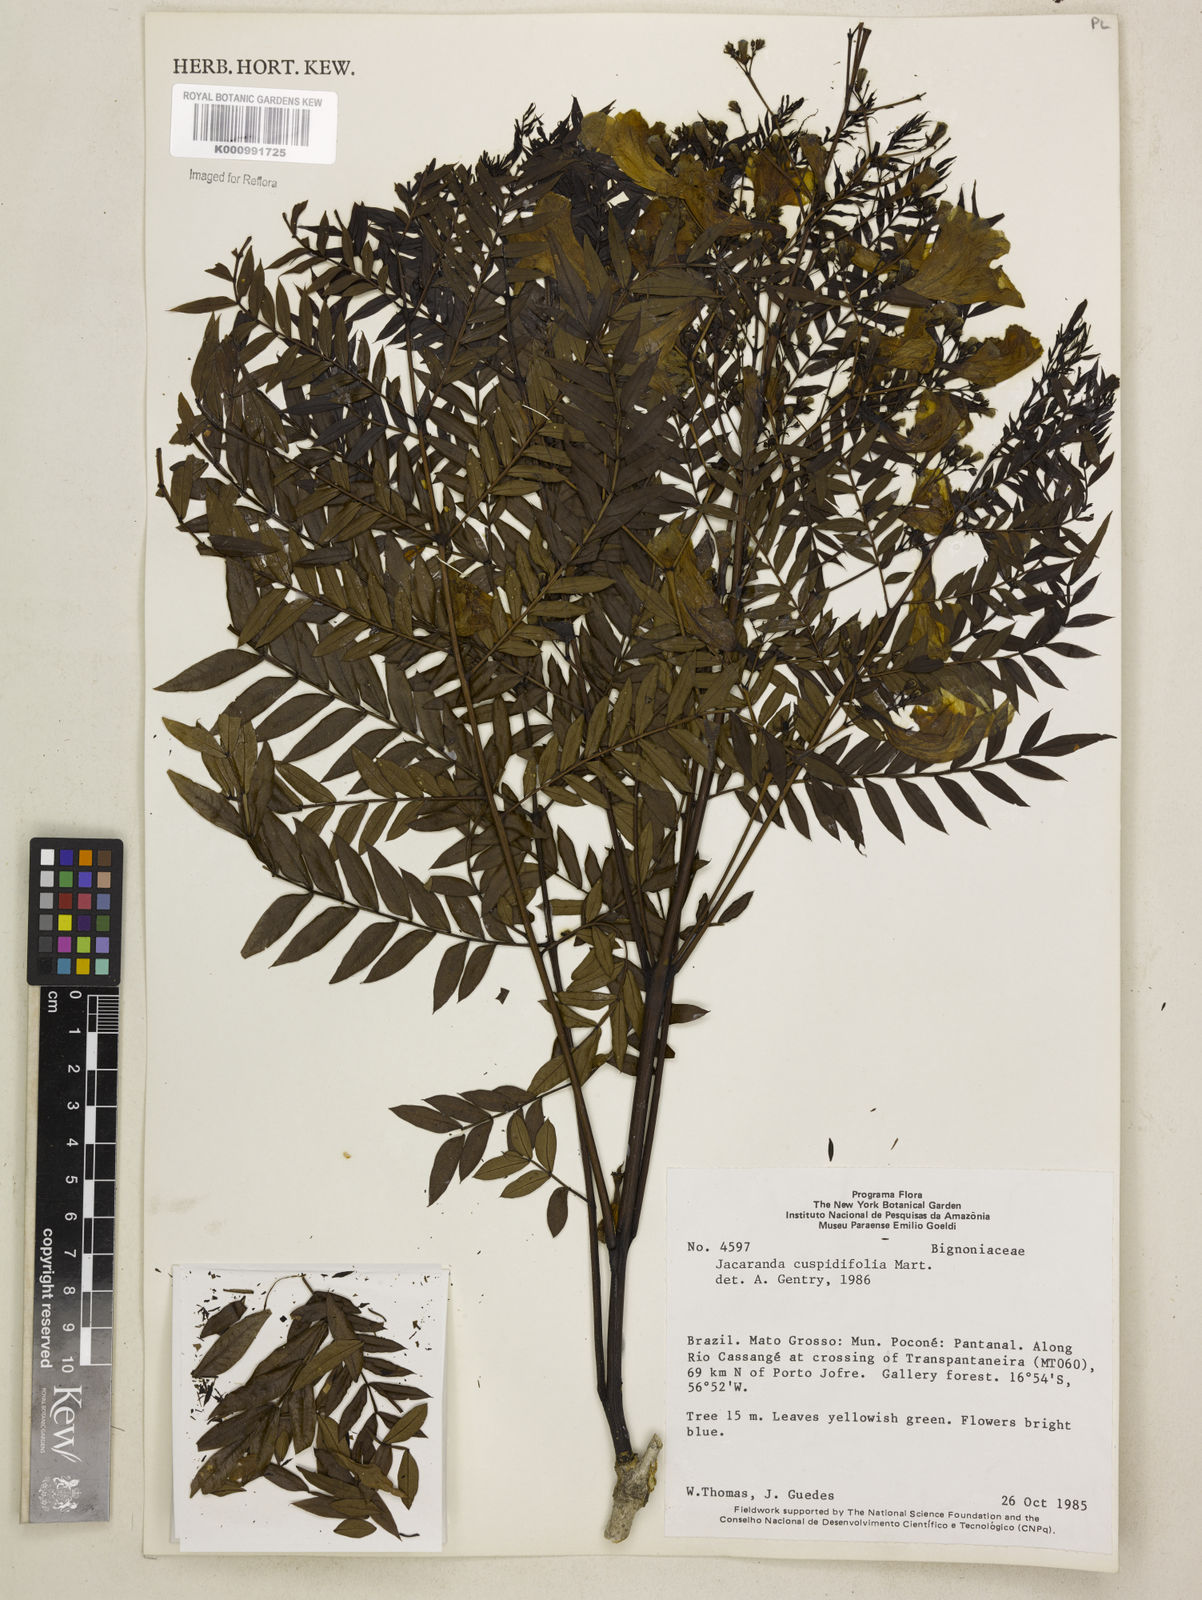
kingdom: Plantae
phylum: Tracheophyta
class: Magnoliopsida
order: Lamiales
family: Bignoniaceae
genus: Jacaranda
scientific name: Jacaranda cuspidifolia
